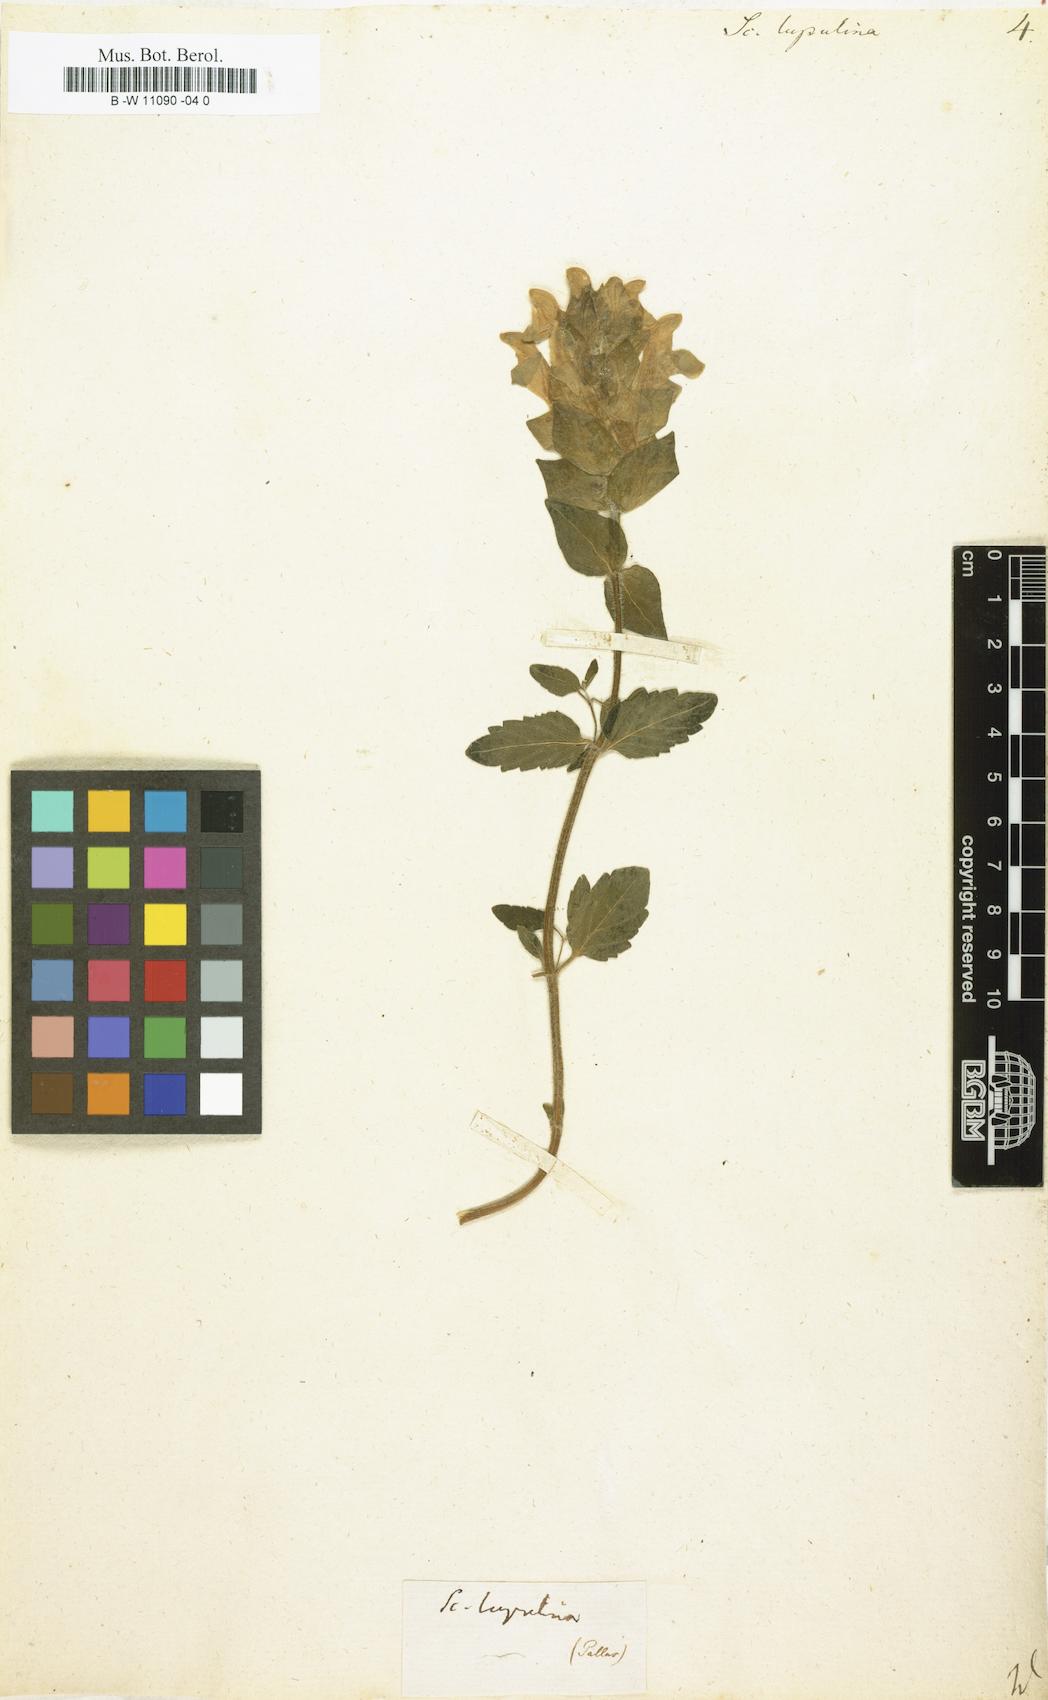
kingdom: Plantae
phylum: Tracheophyta
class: Magnoliopsida
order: Lamiales
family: Lamiaceae
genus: Scutellaria
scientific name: Scutellaria alpina
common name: Alpine scullcap
